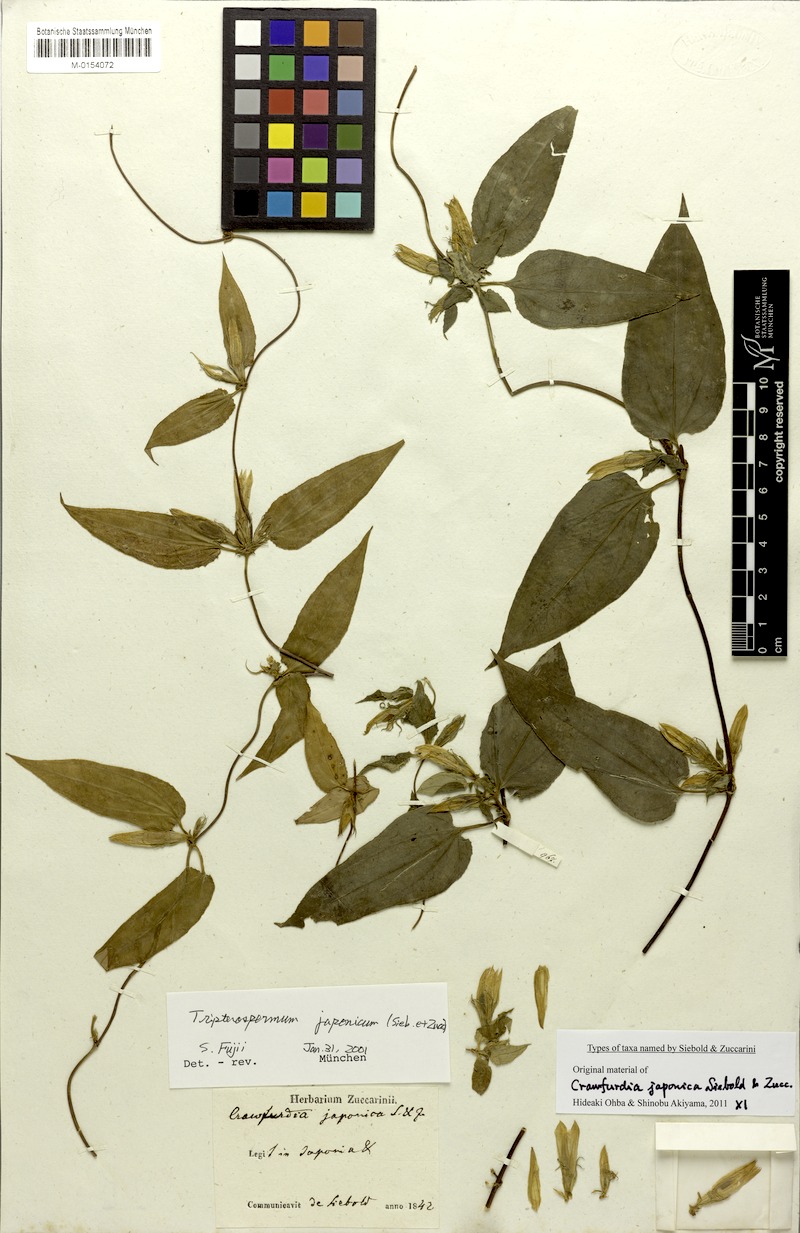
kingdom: Plantae
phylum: Tracheophyta
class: Magnoliopsida
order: Gentianales
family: Gentianaceae
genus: Tripterospermum
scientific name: Tripterospermum trinervium
